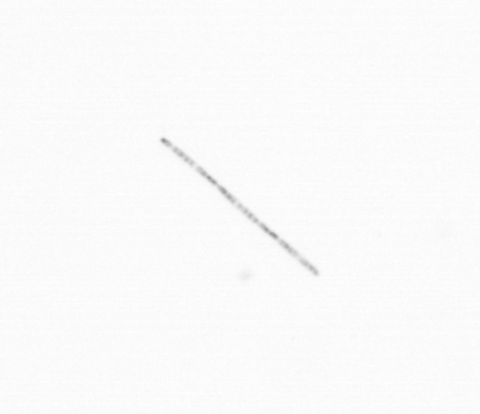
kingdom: Chromista
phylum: Ochrophyta
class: Bacillariophyceae
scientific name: Bacillariophyceae
